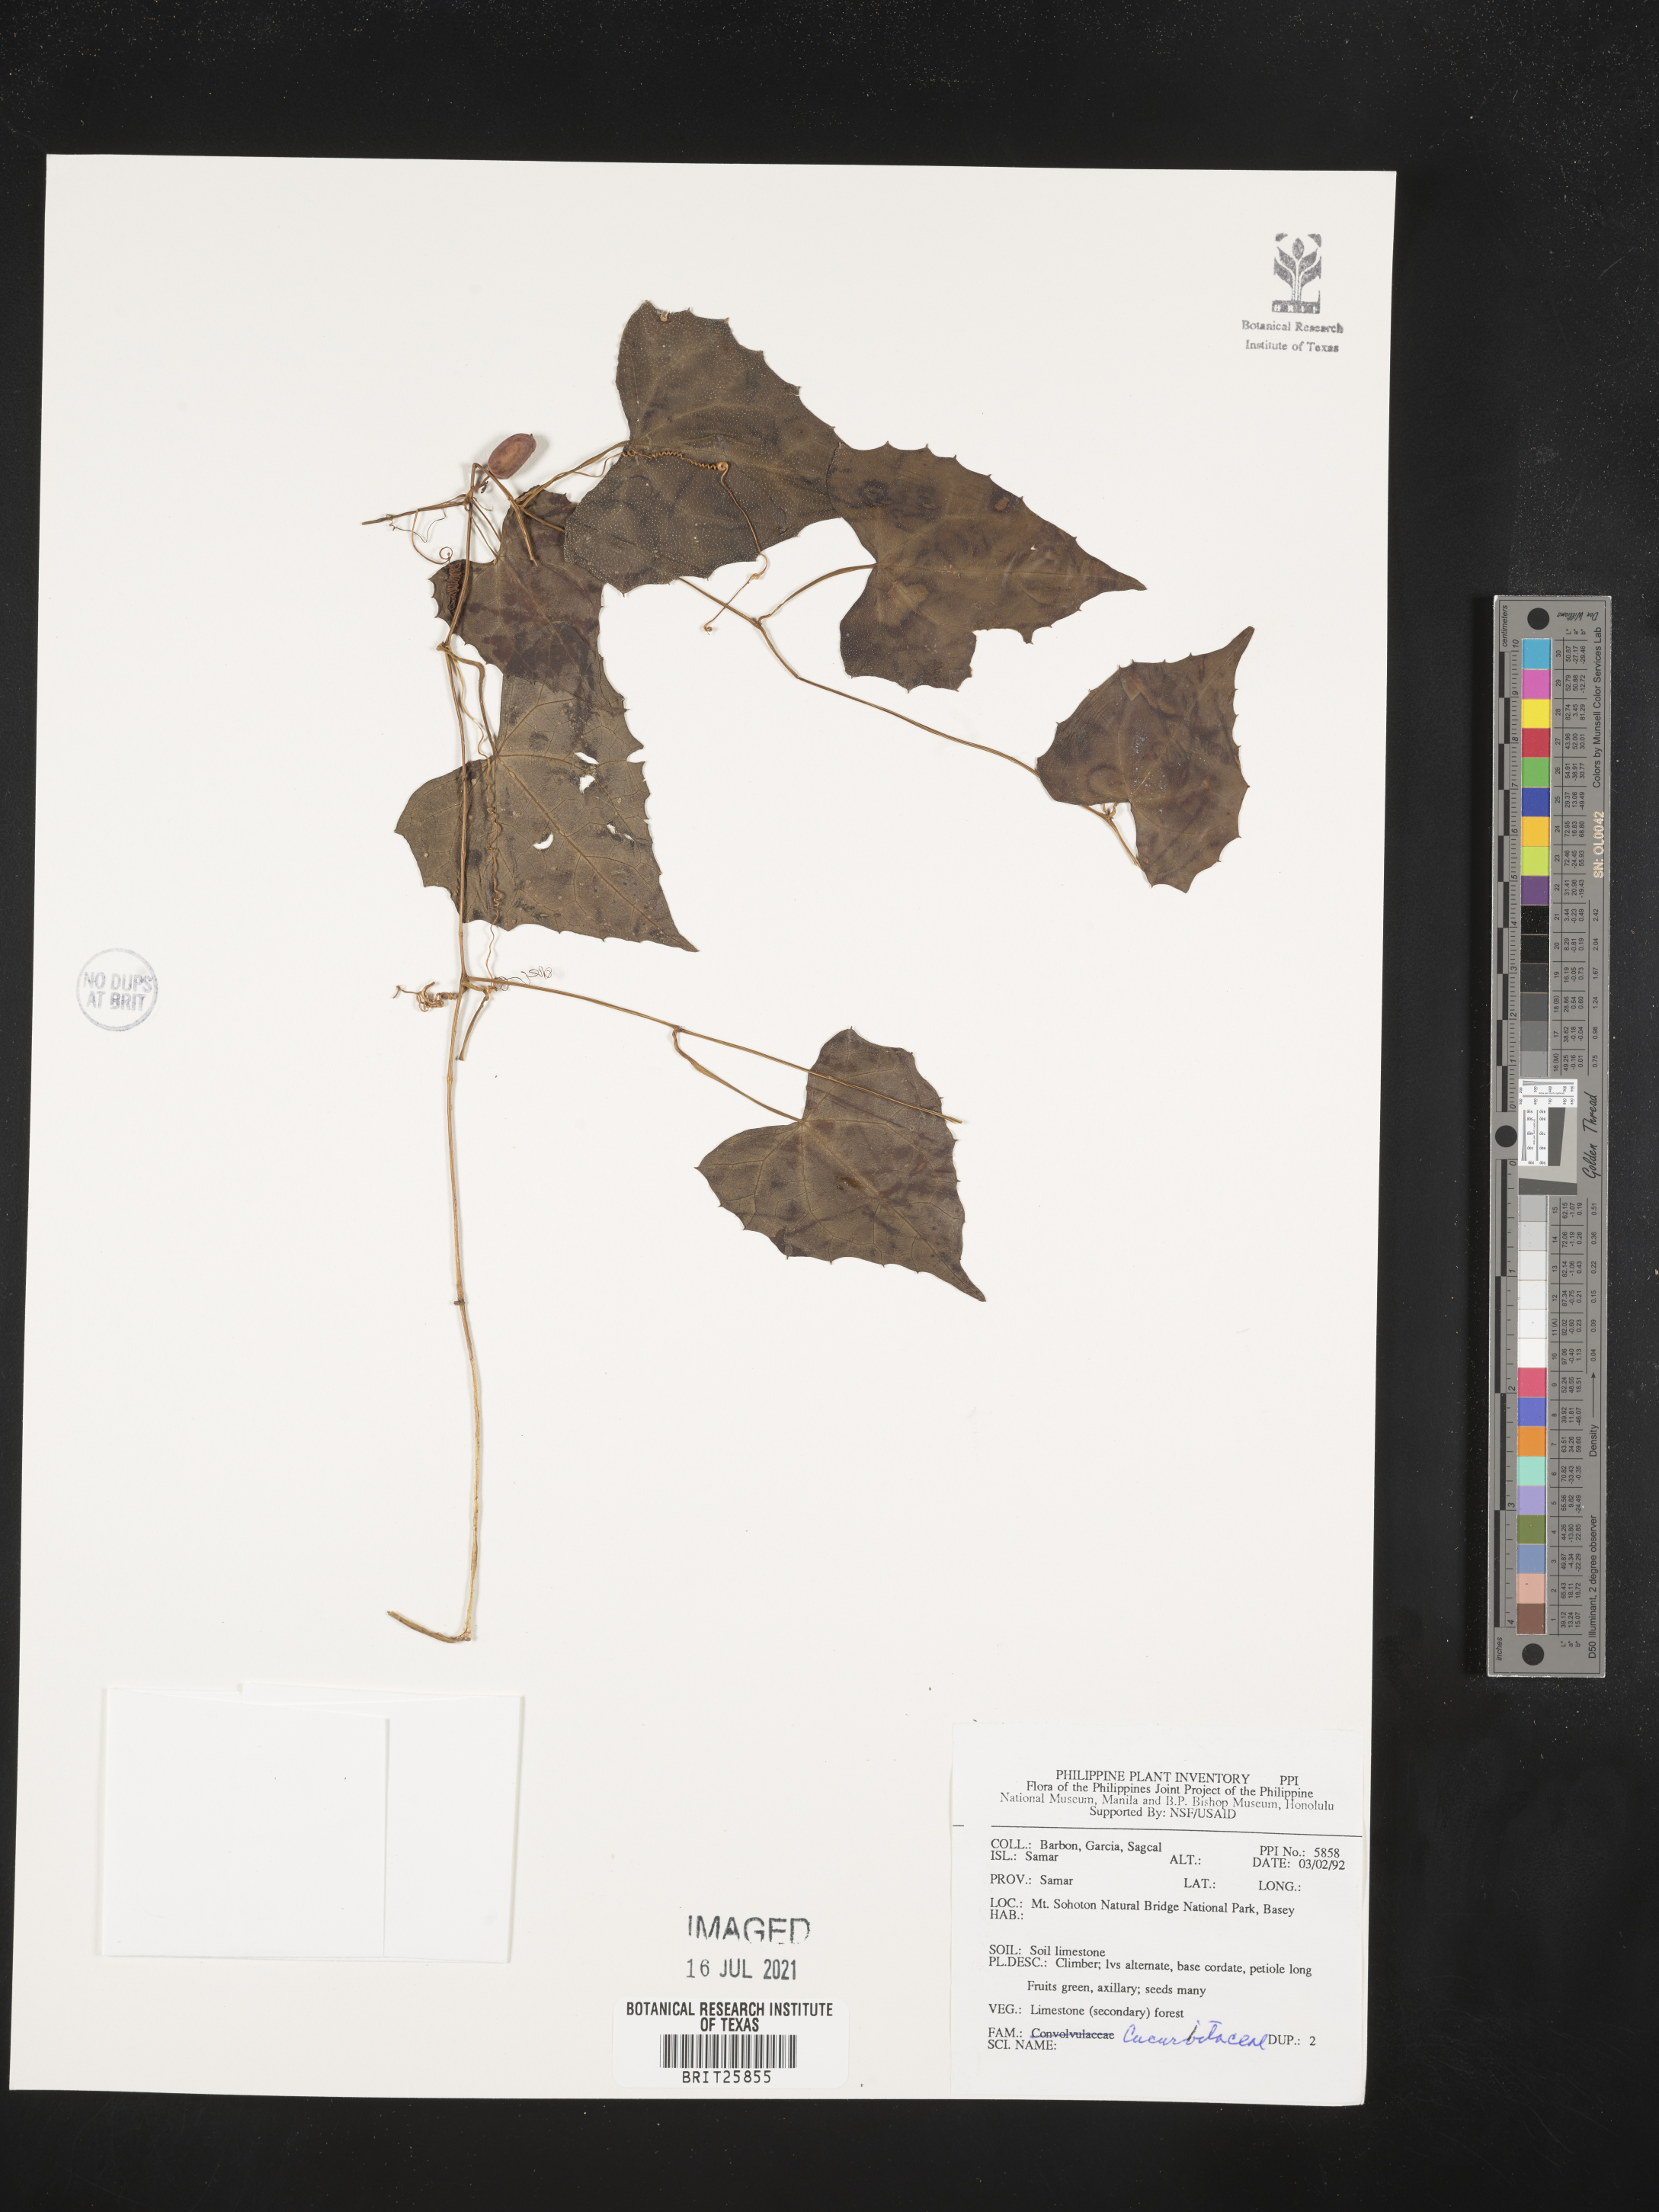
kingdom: Plantae
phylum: Tracheophyta
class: Magnoliopsida
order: Cucurbitales
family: Cucurbitaceae
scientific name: Cucurbitaceae
